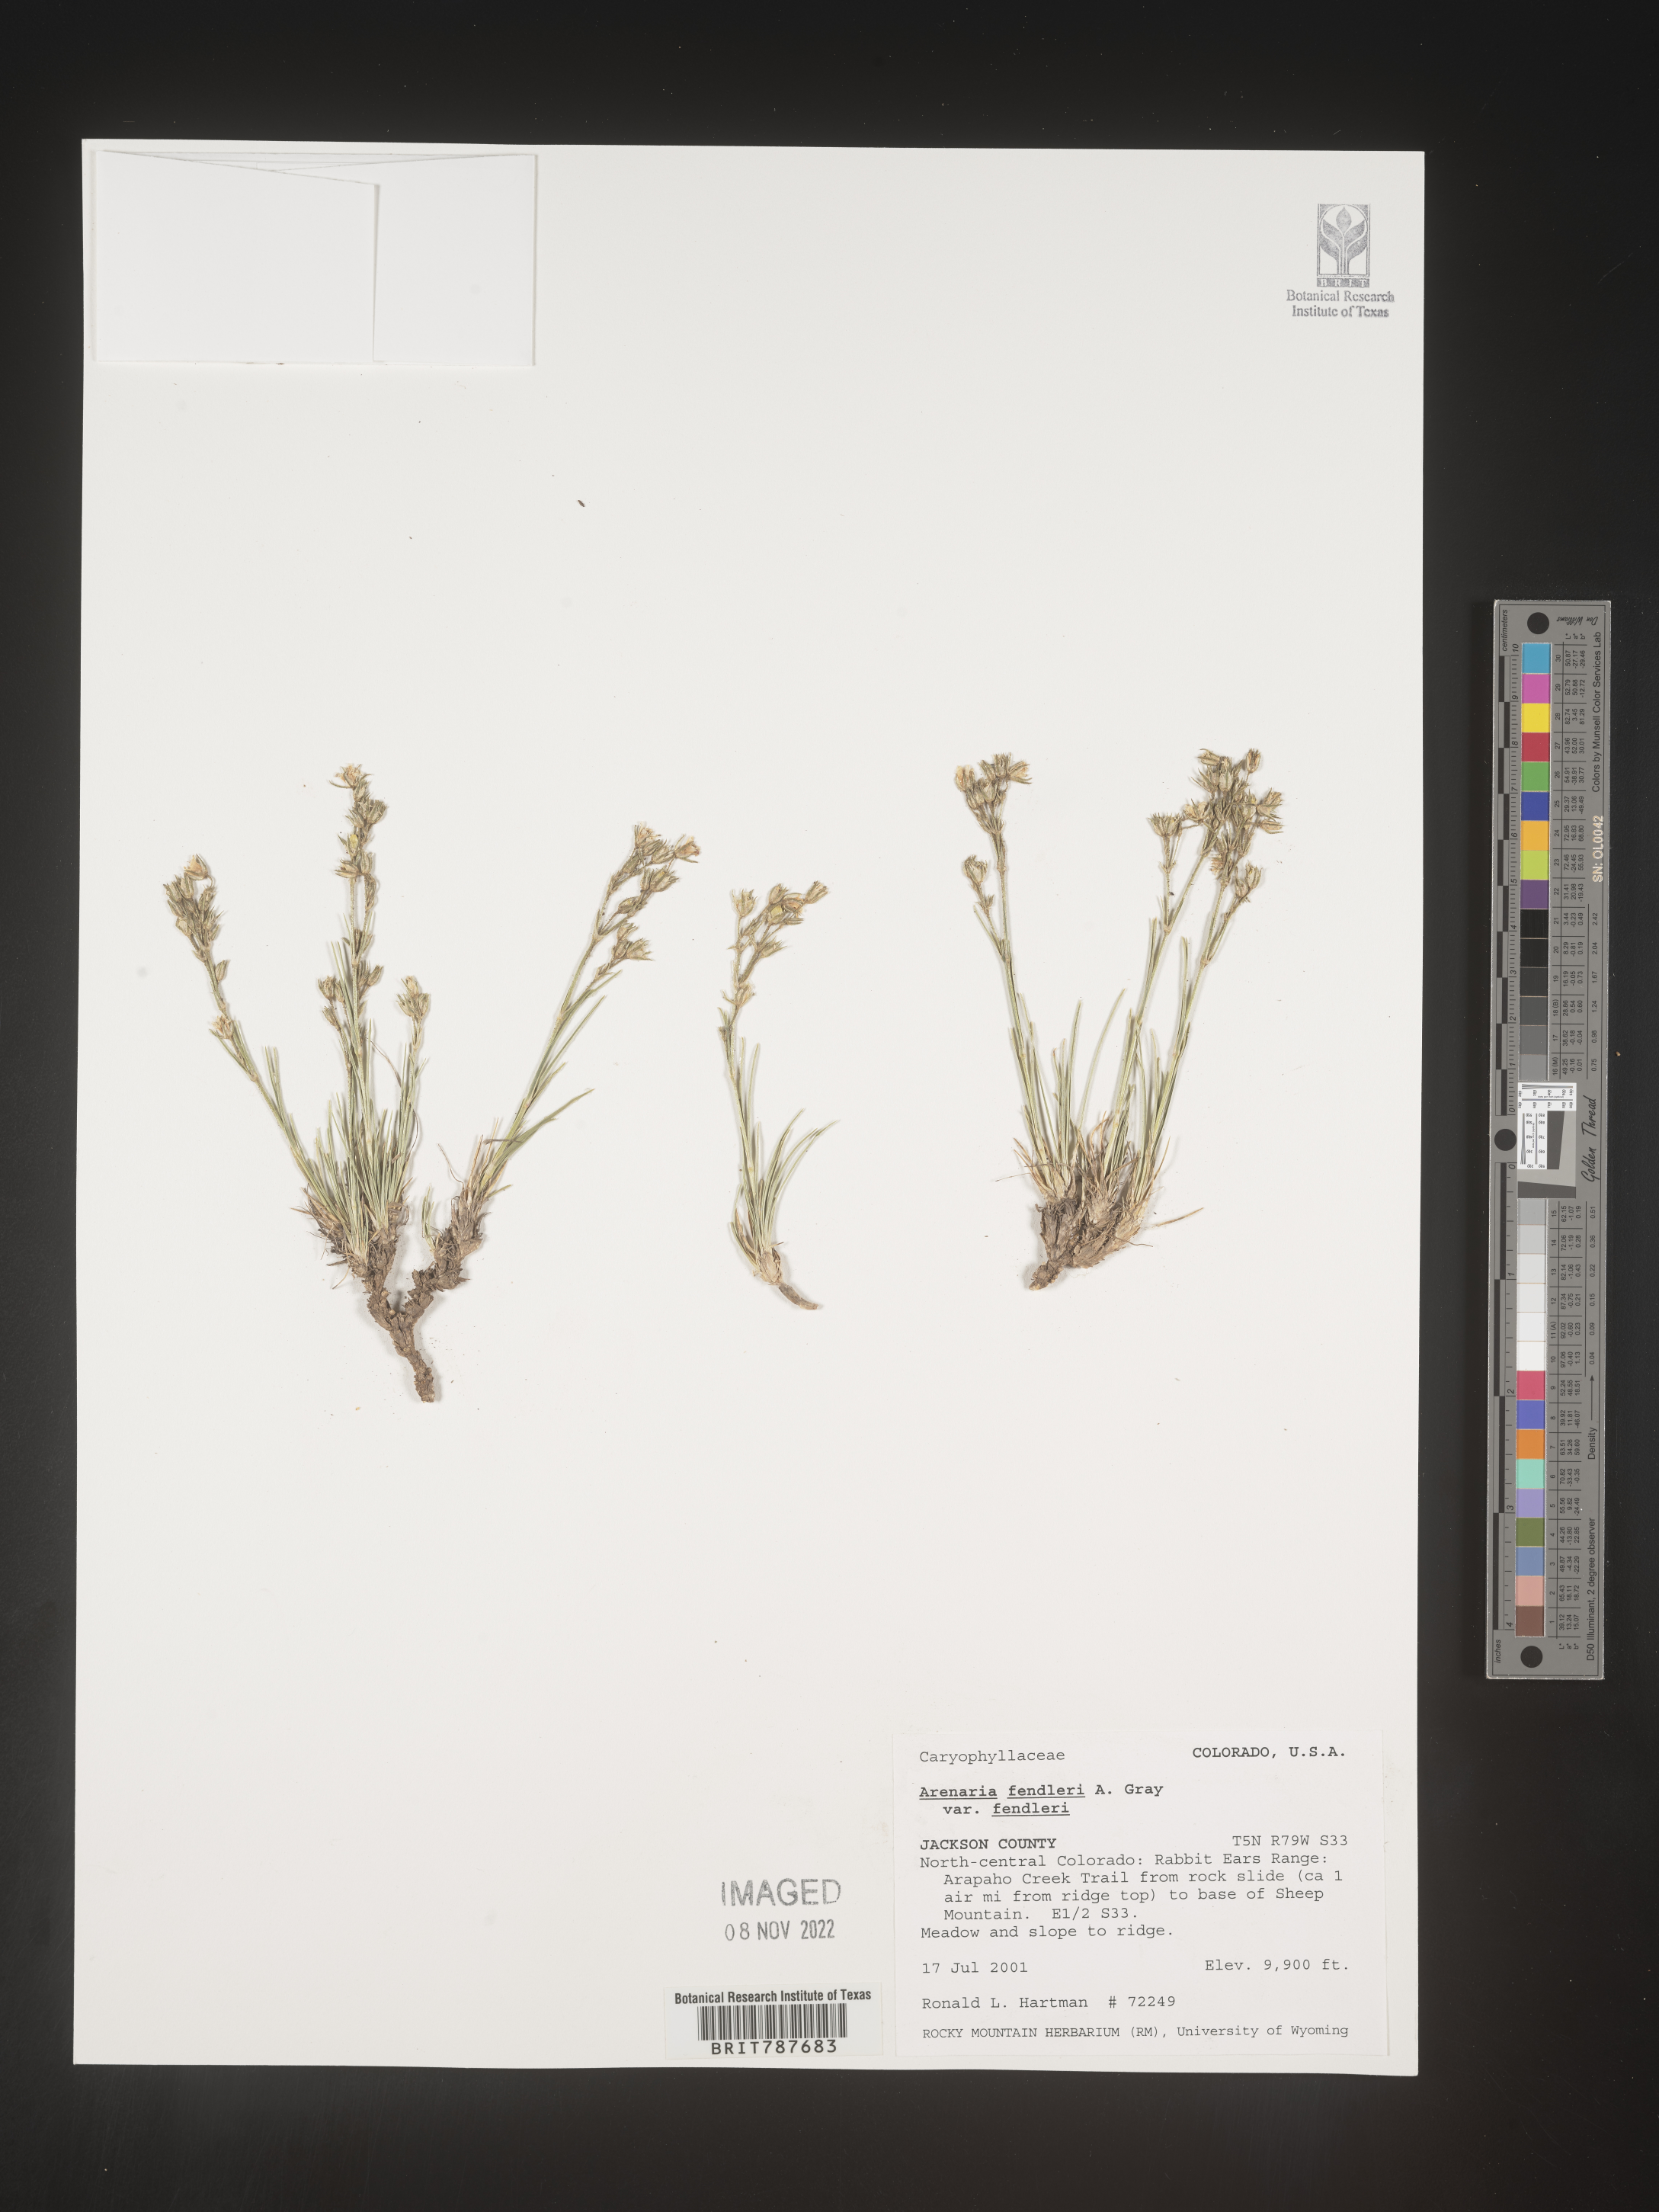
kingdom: Plantae
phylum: Tracheophyta
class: Magnoliopsida
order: Caryophyllales
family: Caryophyllaceae
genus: Arenaria
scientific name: Arenaria
